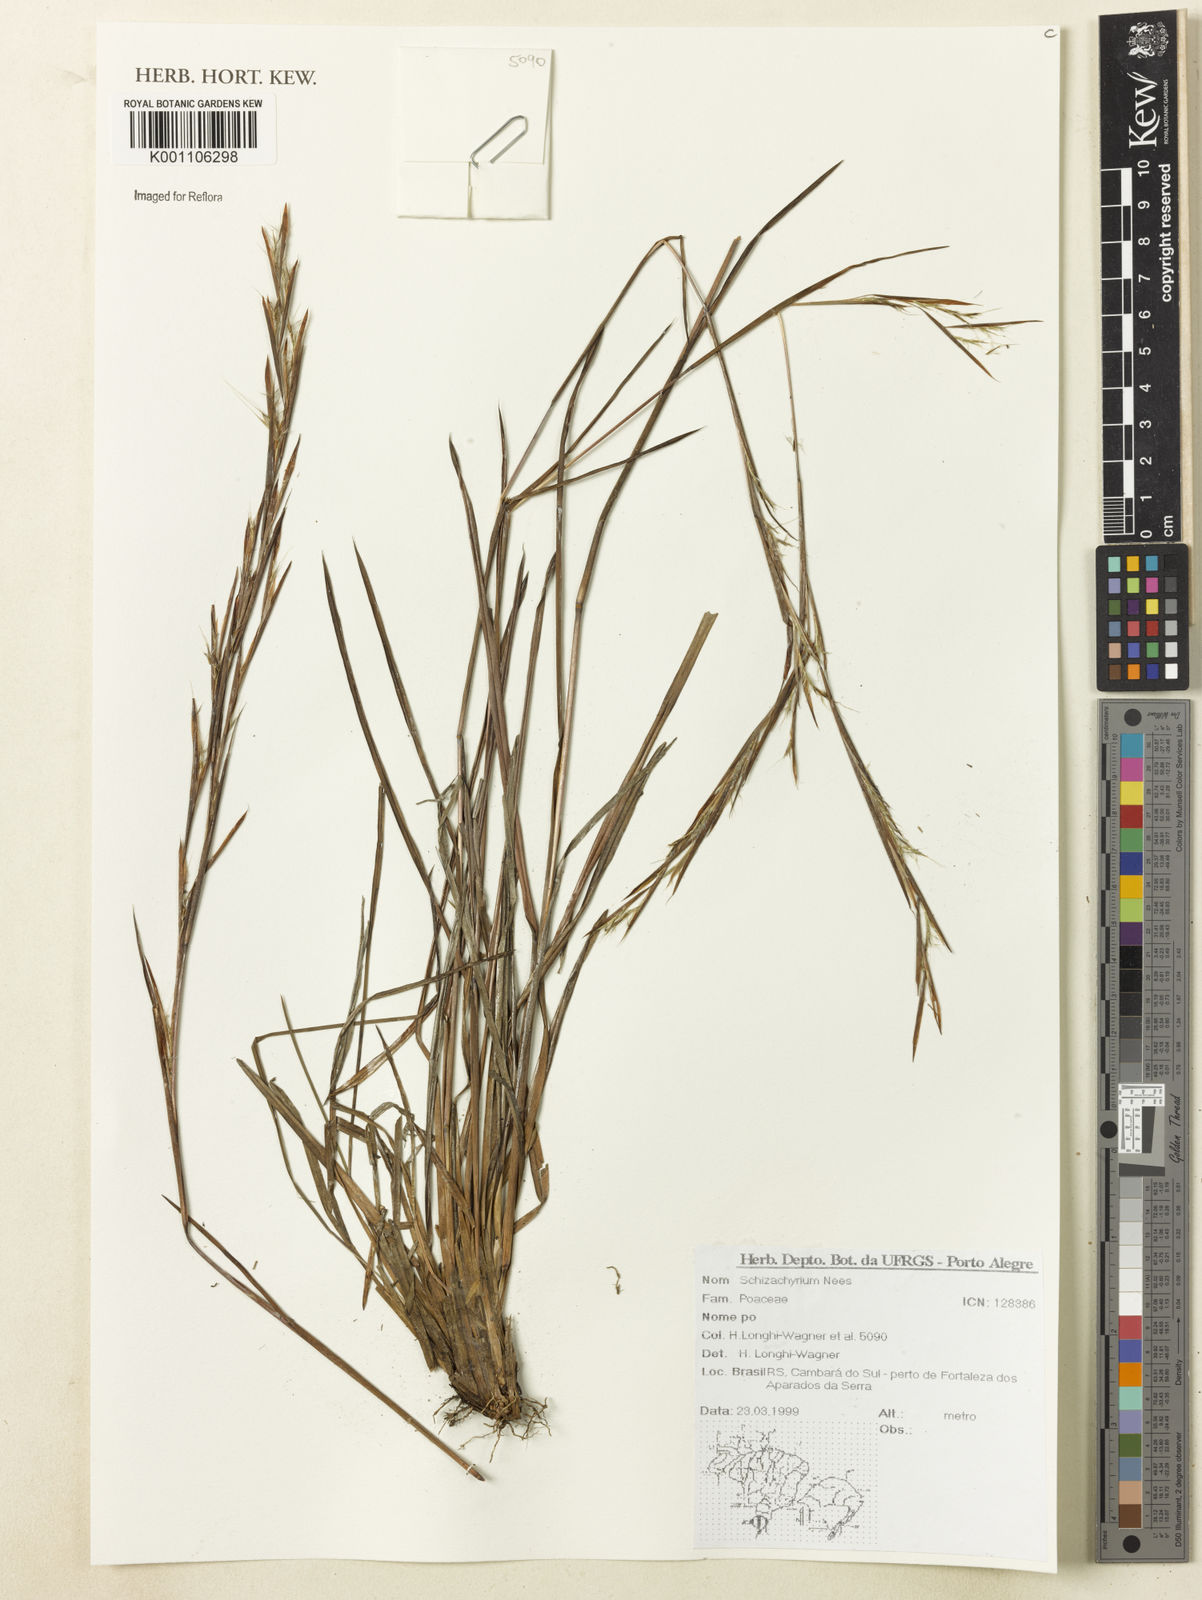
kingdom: Plantae
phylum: Tracheophyta
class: Liliopsida
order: Poales
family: Poaceae
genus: Schizachyrium
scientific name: Schizachyrium
